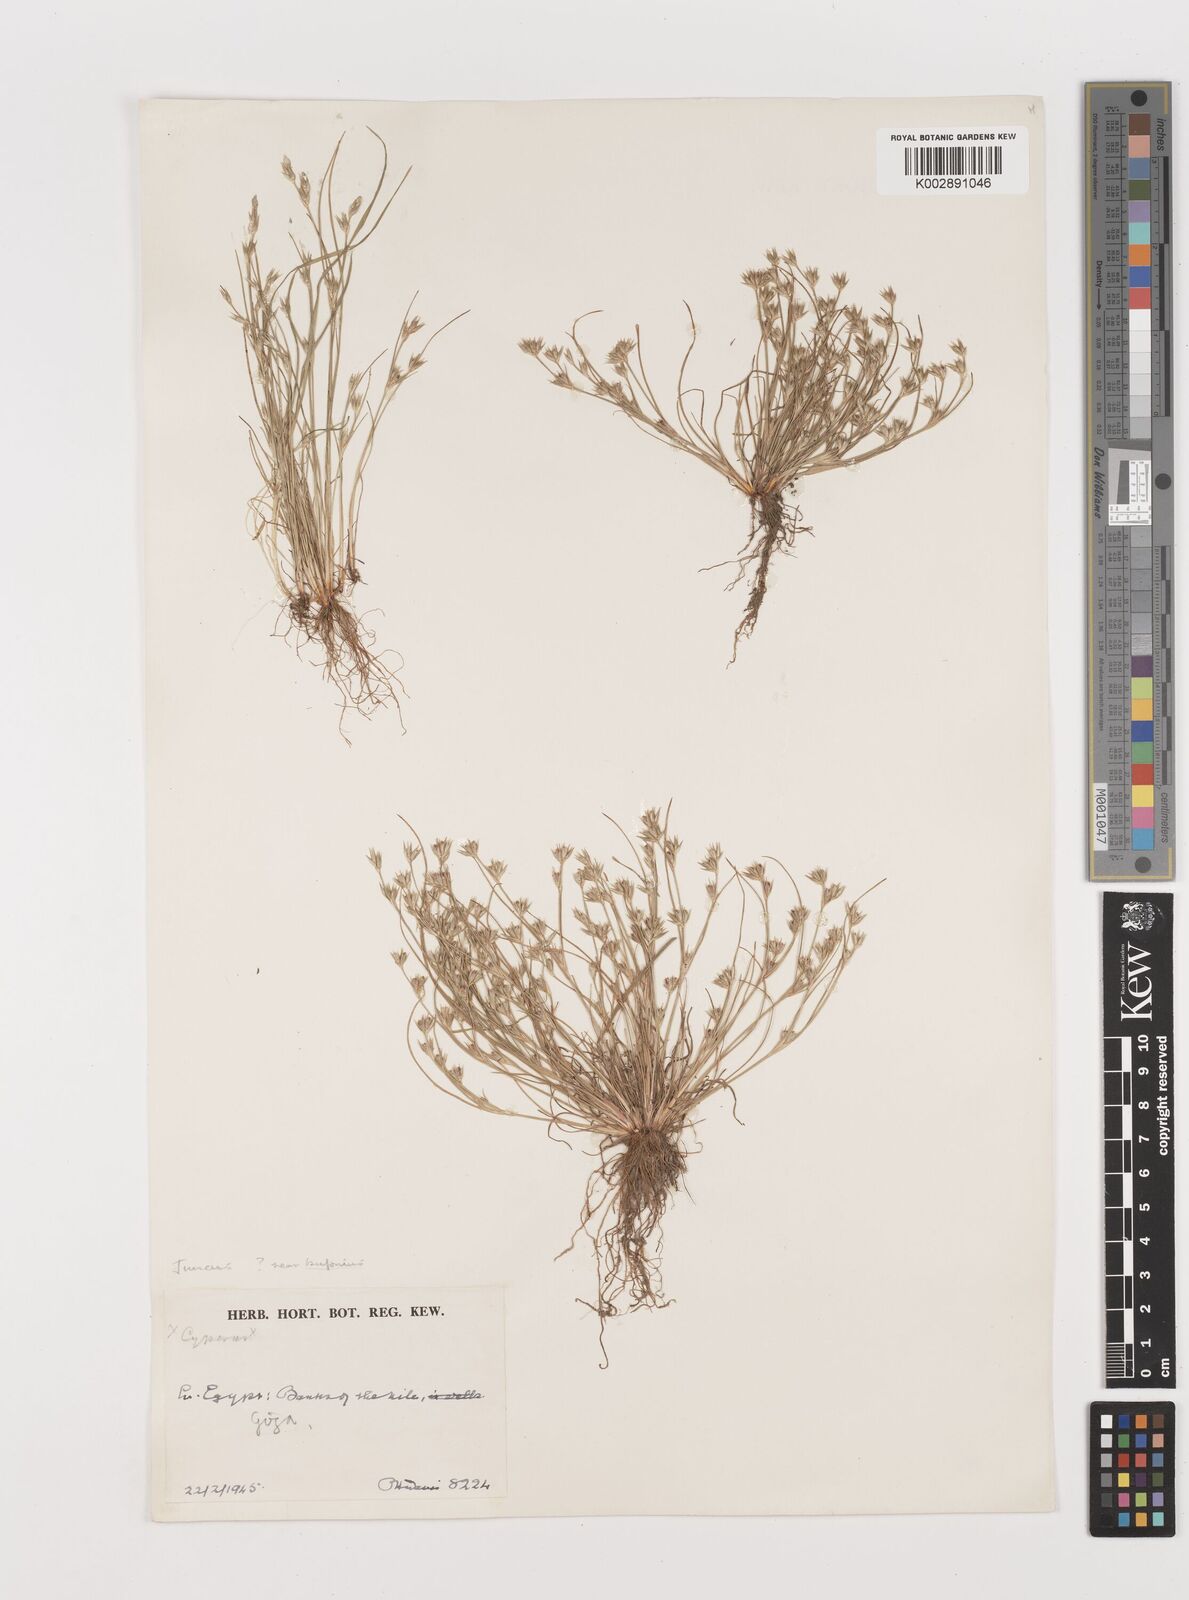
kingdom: Plantae
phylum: Tracheophyta
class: Liliopsida
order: Poales
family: Juncaceae
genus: Juncus
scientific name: Juncus bufonius
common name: Toad rush
